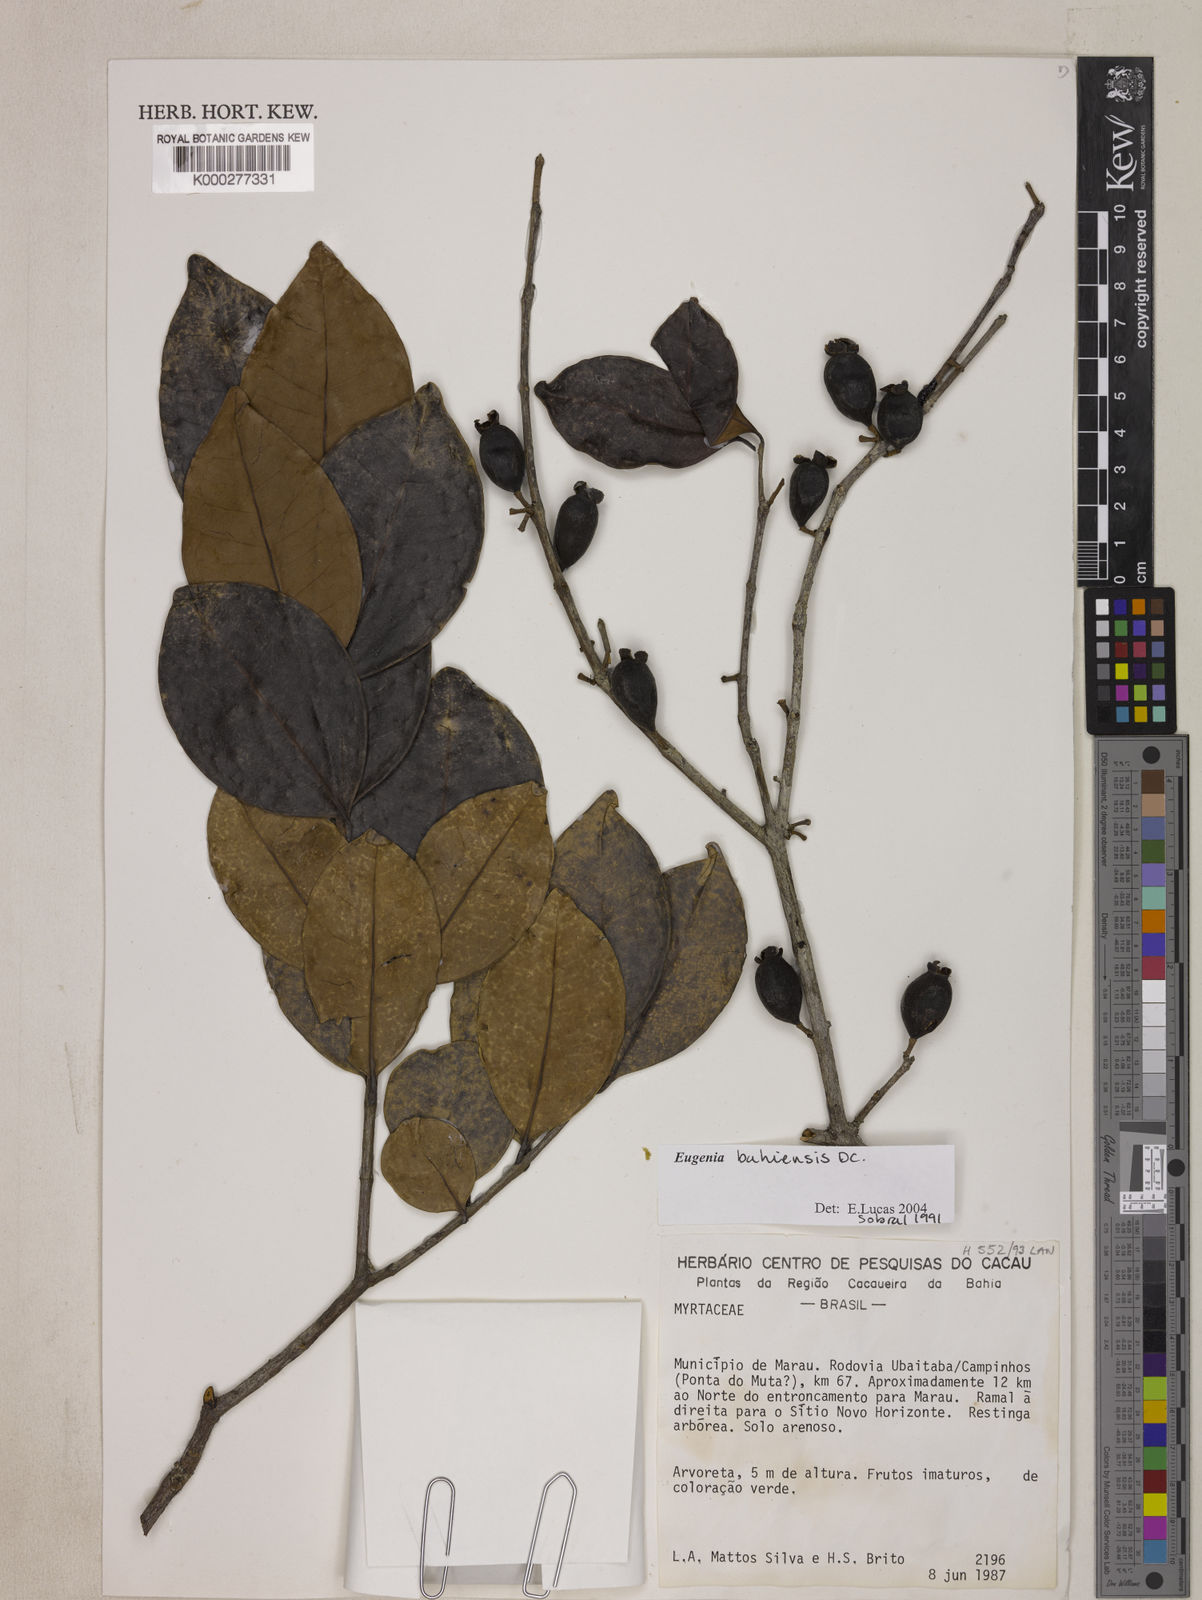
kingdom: Plantae
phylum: Tracheophyta
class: Magnoliopsida
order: Myrtales
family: Myrtaceae
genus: Eugenia
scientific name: Eugenia bahiensis
